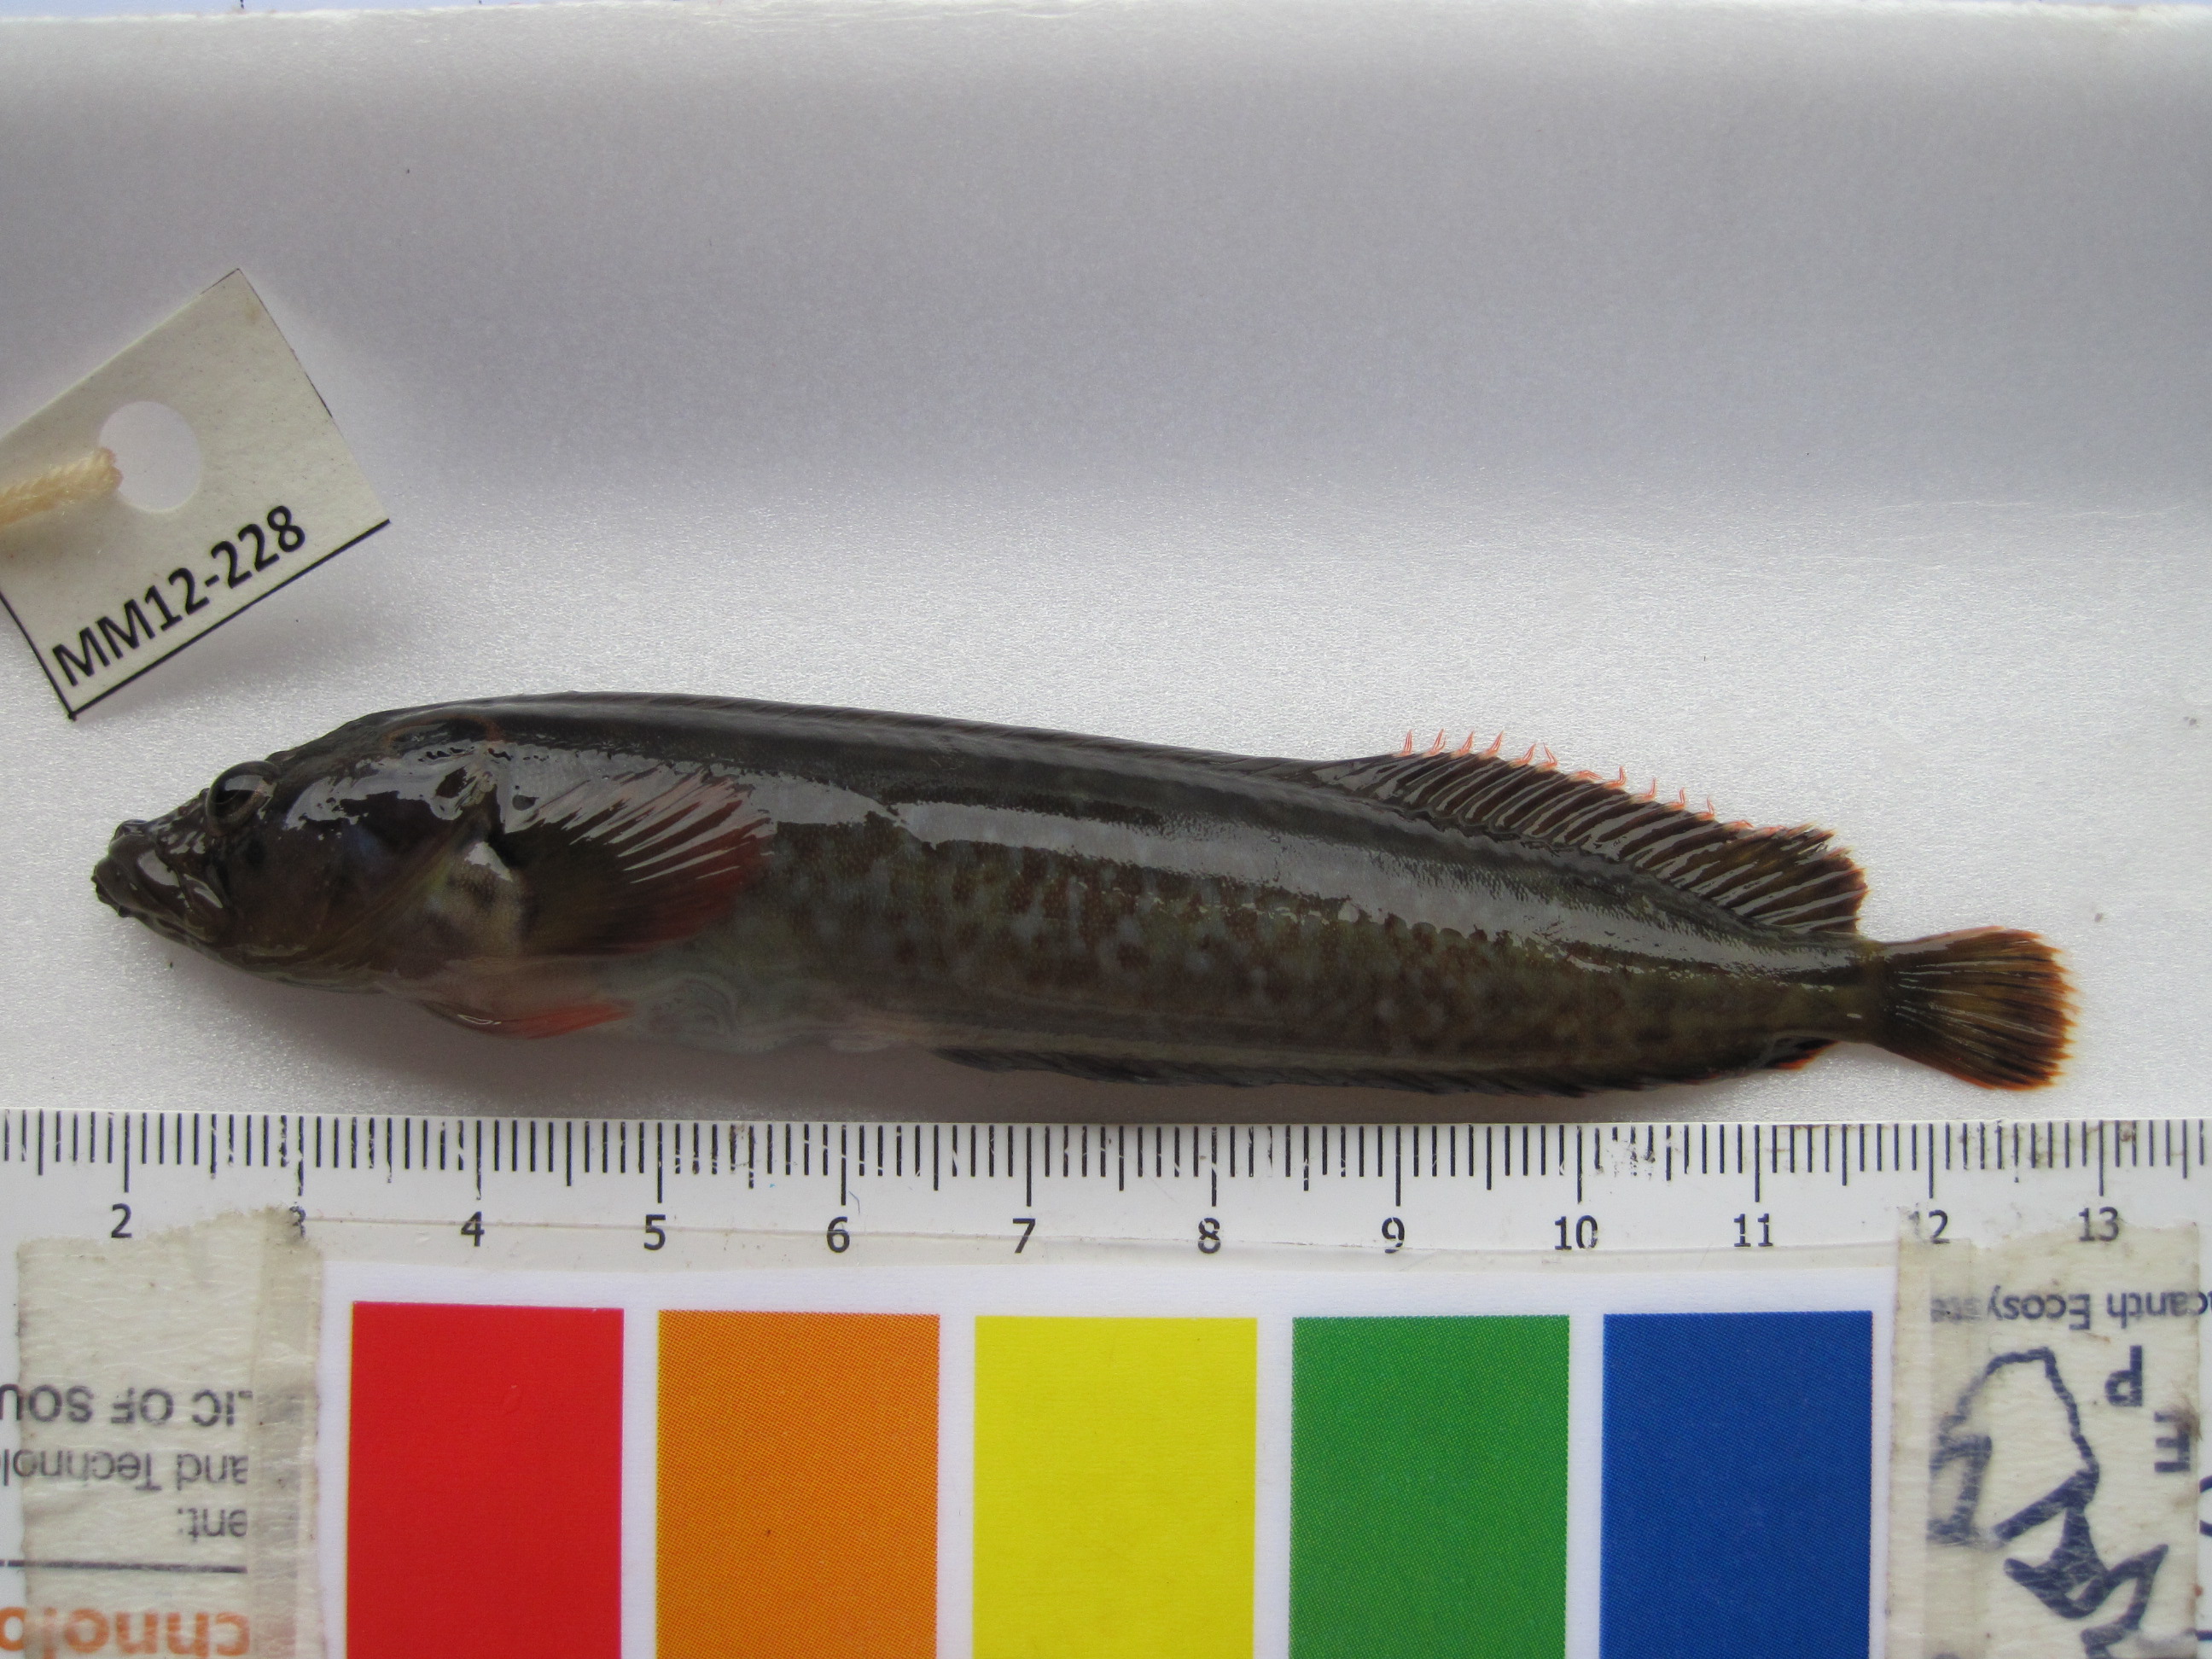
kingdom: Animalia
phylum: Chordata
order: Perciformes
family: Clinidae
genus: Cirrhibarbis
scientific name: Cirrhibarbis capensis
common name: Barbelled klipfish
